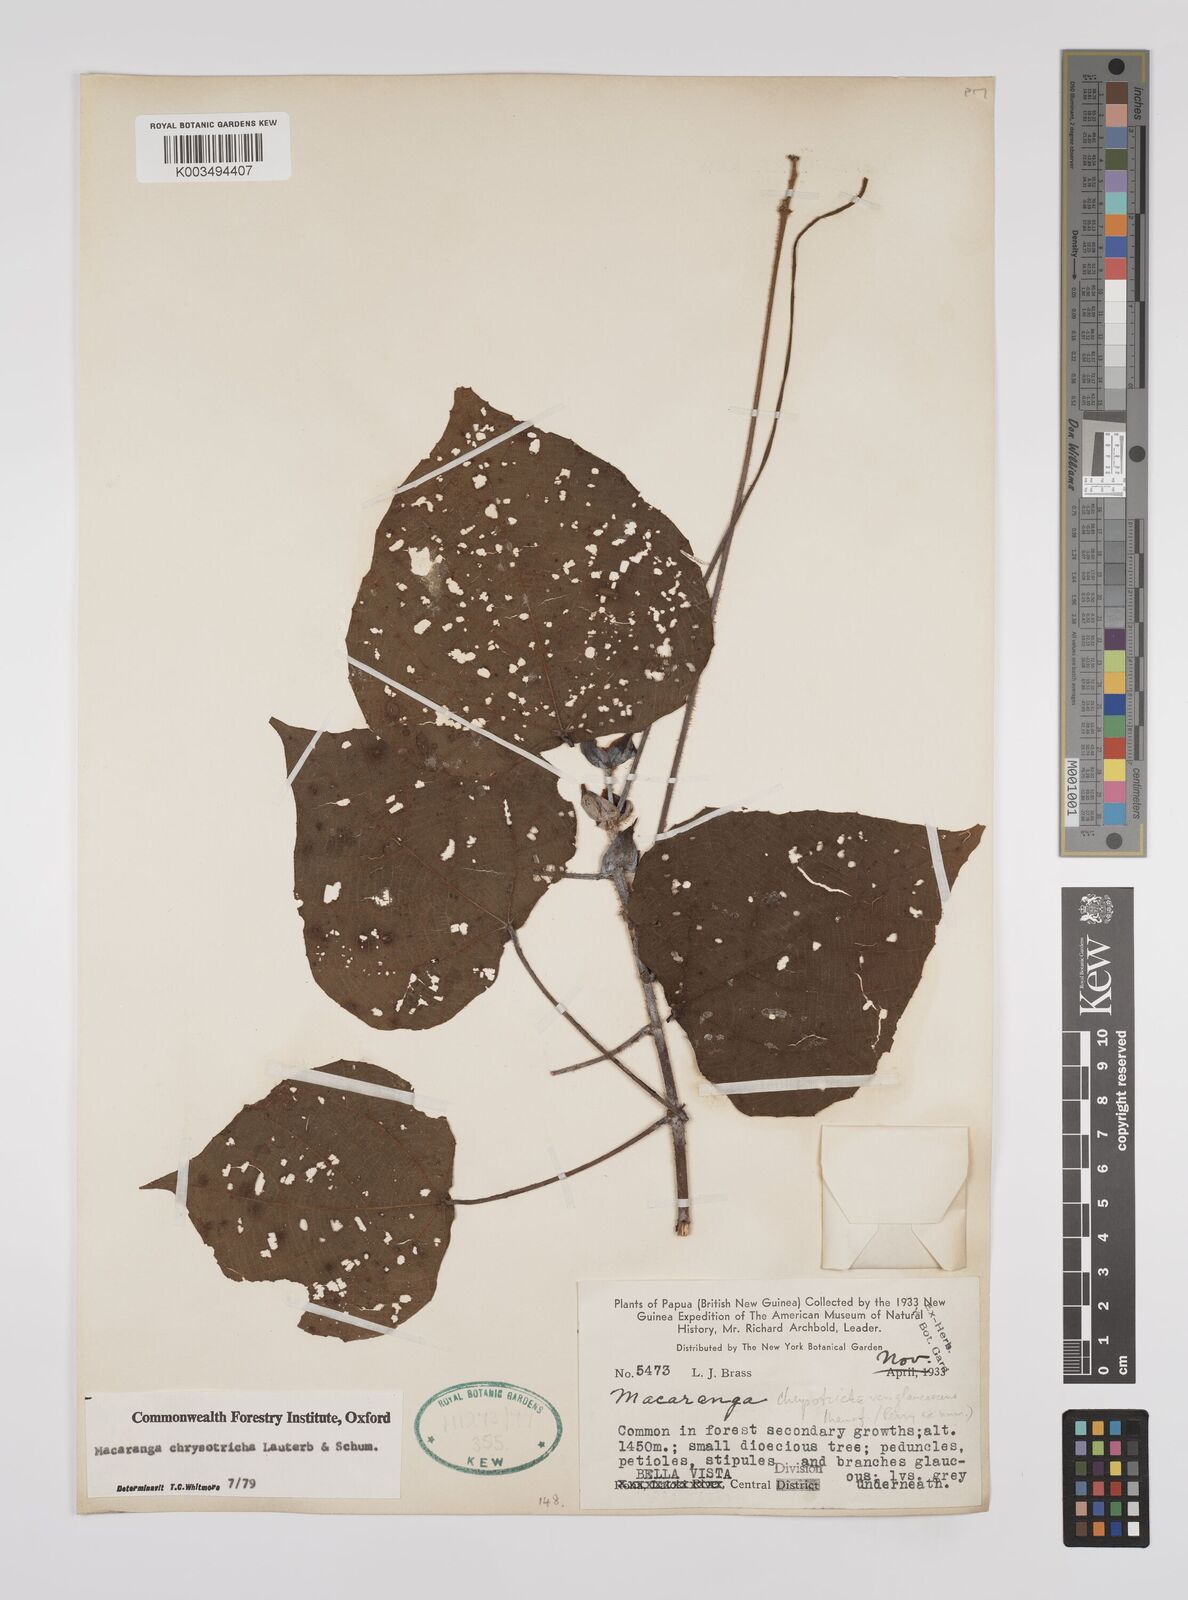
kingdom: Plantae
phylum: Tracheophyta
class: Magnoliopsida
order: Malpighiales
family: Euphorbiaceae
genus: Macaranga
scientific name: Macaranga chrysotricha
